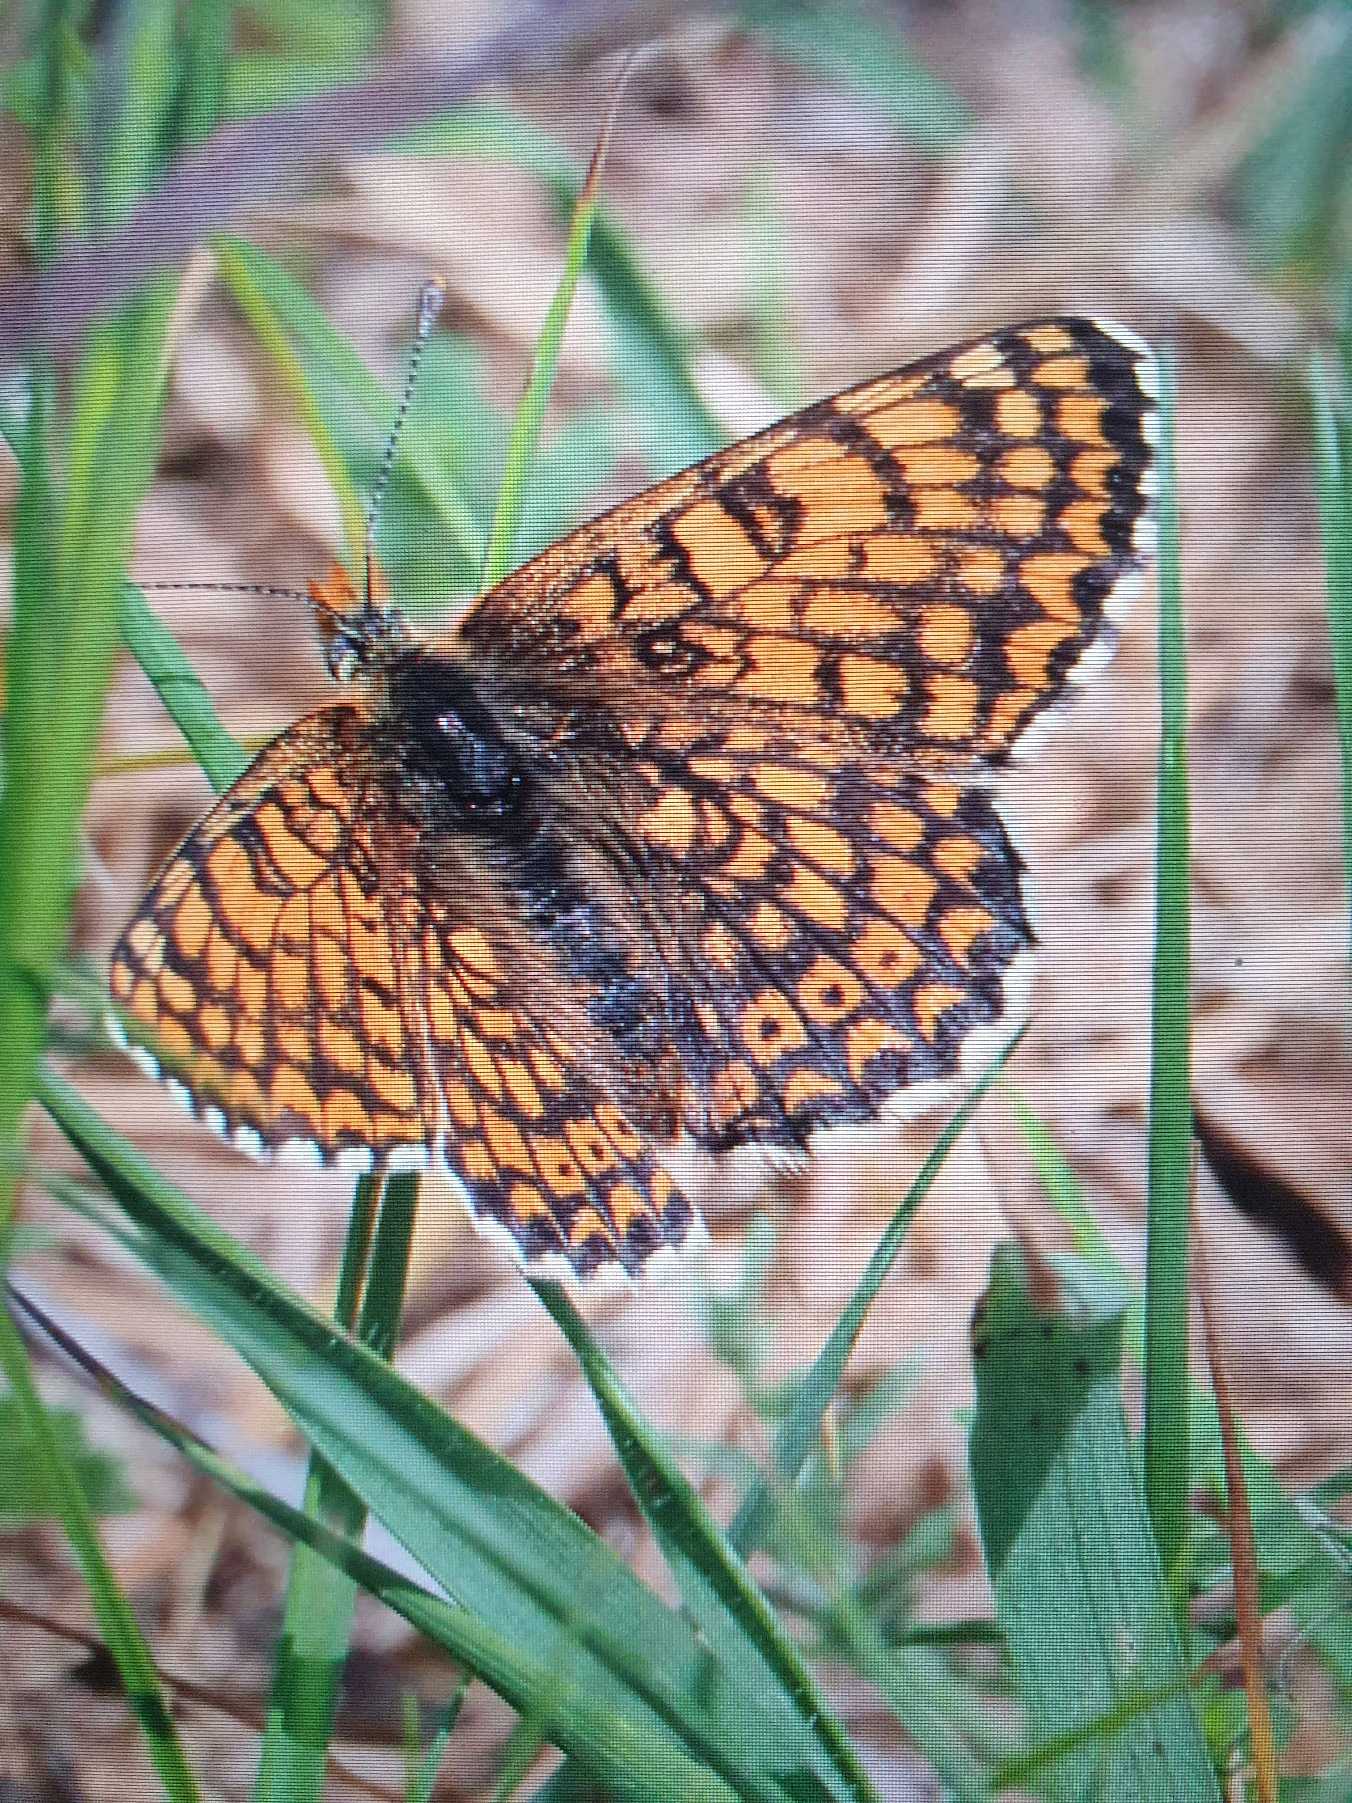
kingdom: Animalia
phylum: Arthropoda
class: Insecta
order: Lepidoptera
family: Nymphalidae
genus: Melitaea
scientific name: Melitaea cinxia
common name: Okkergul pletvinge
